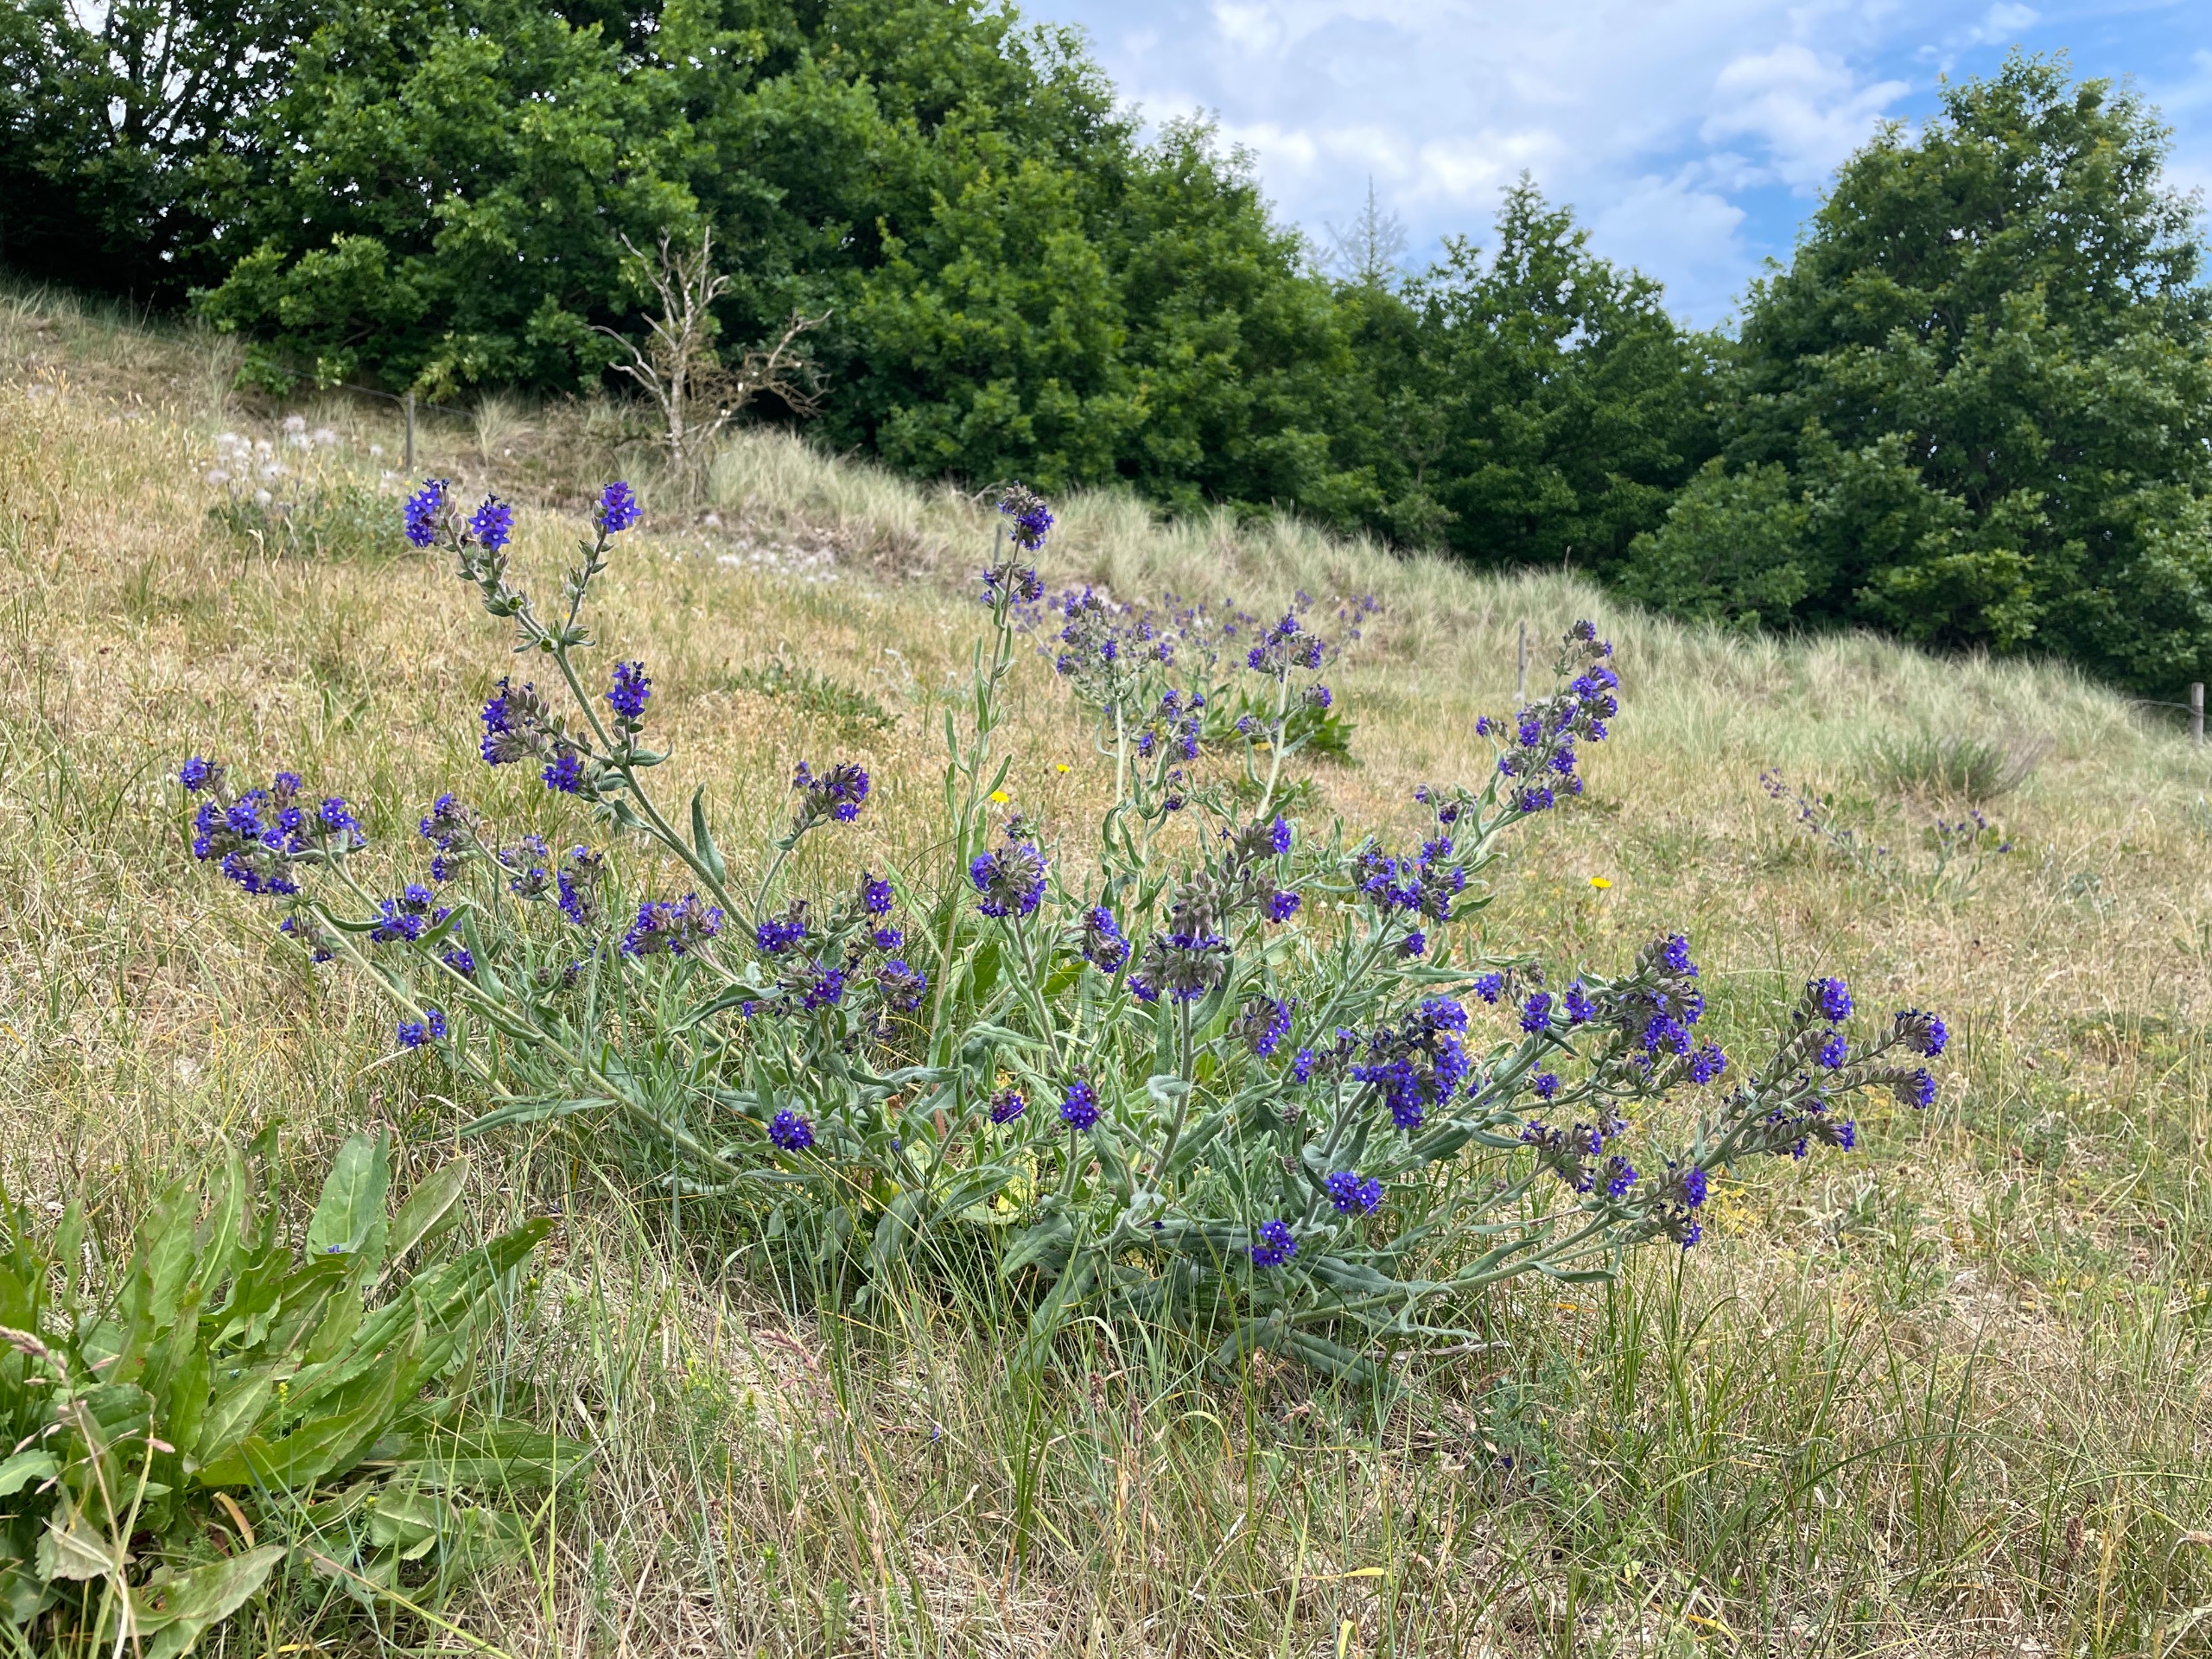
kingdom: Plantae
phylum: Tracheophyta
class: Magnoliopsida
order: Boraginales
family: Boraginaceae
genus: Anchusa
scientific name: Anchusa officinalis
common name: Læge-oksetunge
